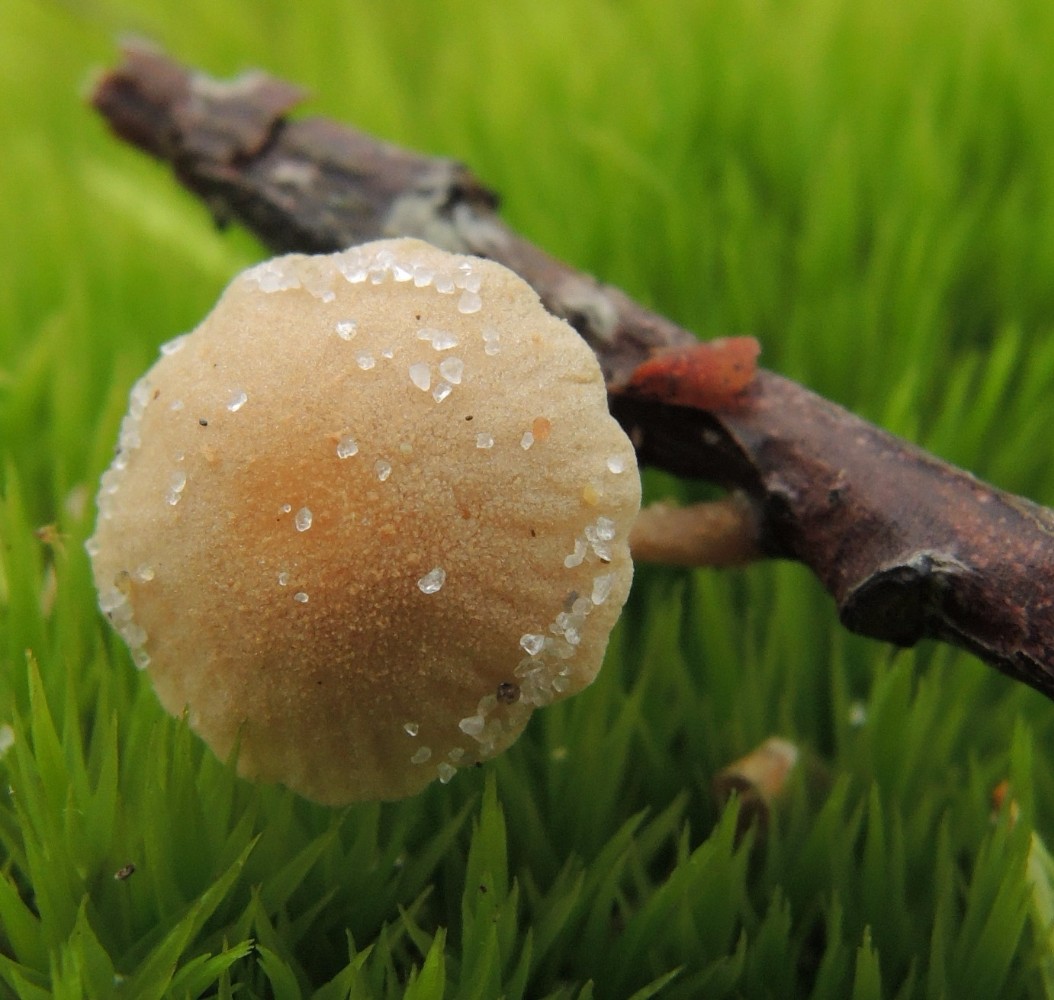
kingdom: Fungi
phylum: Basidiomycota
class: Agaricomycetes
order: Agaricales
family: Tubariaceae
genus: Flammulaster
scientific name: Flammulaster carpophilus
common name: bøge-grynskælhat
